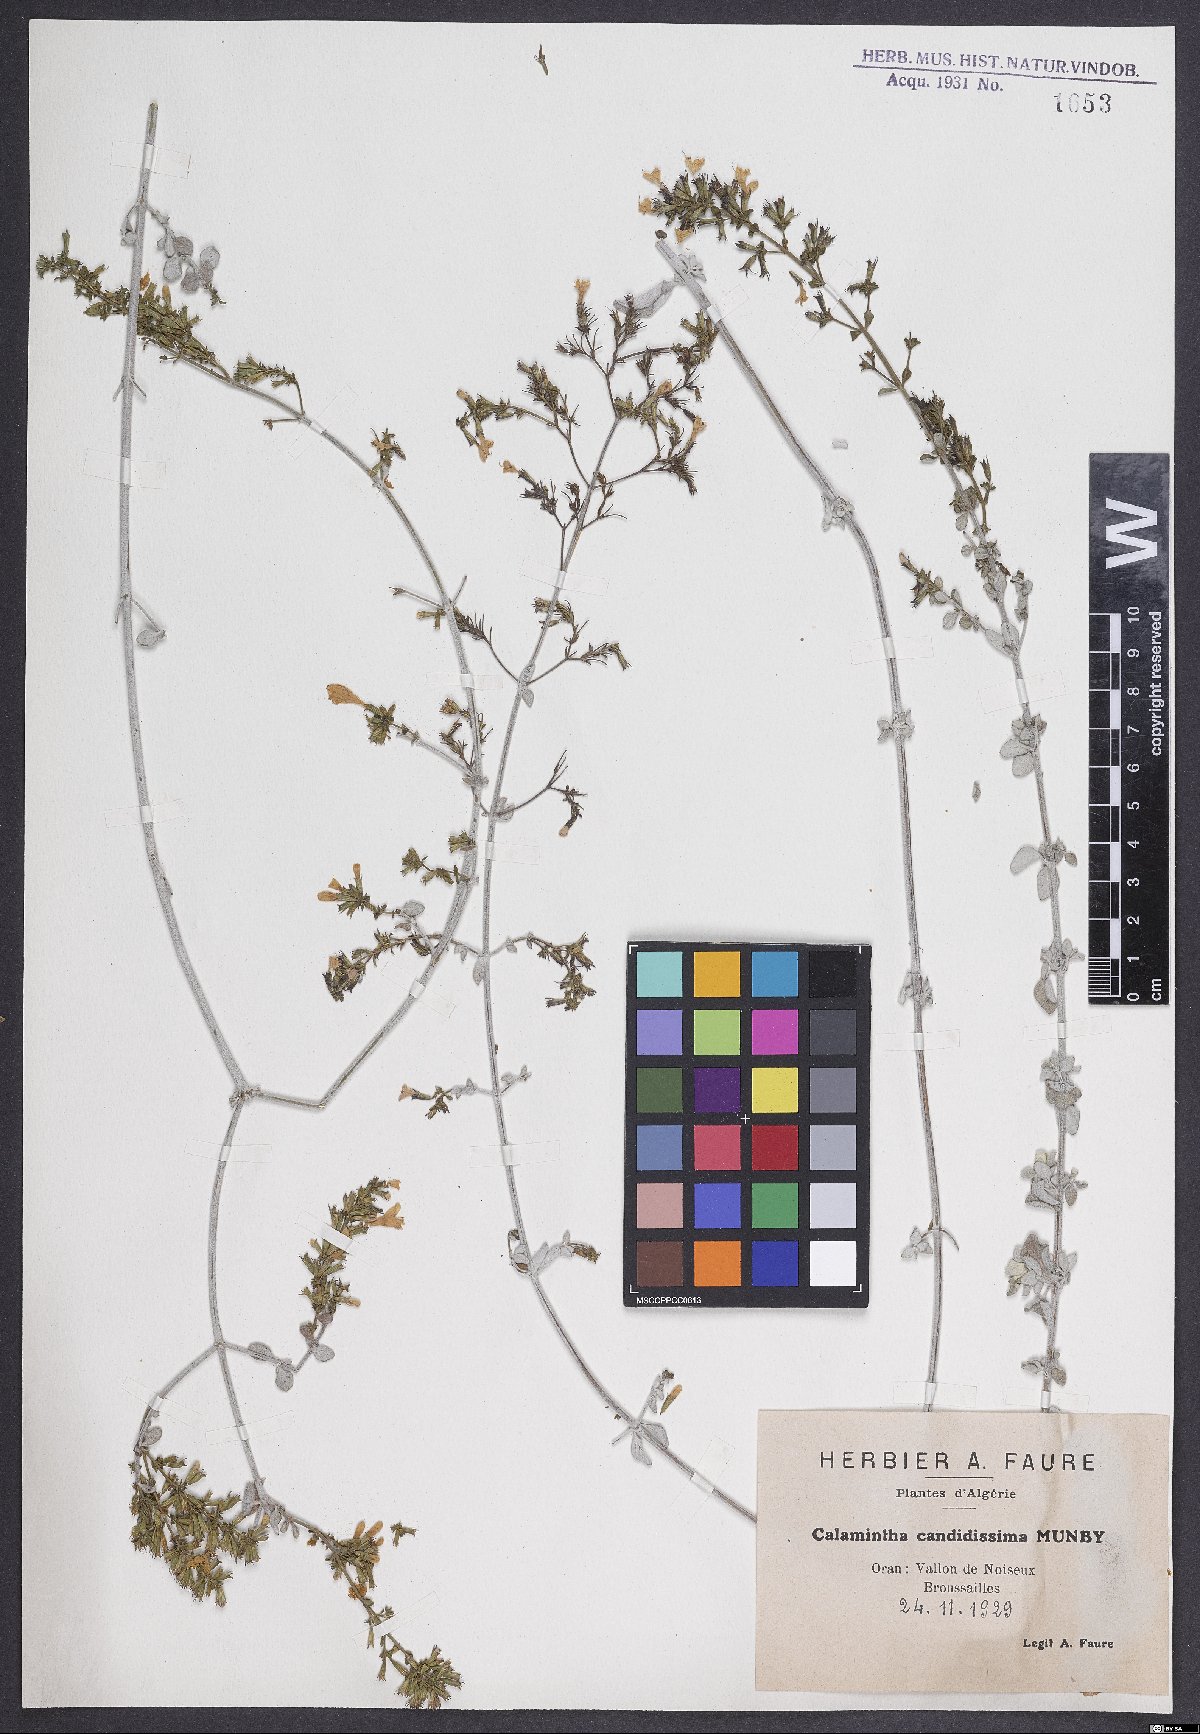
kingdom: Plantae
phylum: Tracheophyta
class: Magnoliopsida
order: Lamiales
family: Lamiaceae
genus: Calamintha
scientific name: Calamintha
